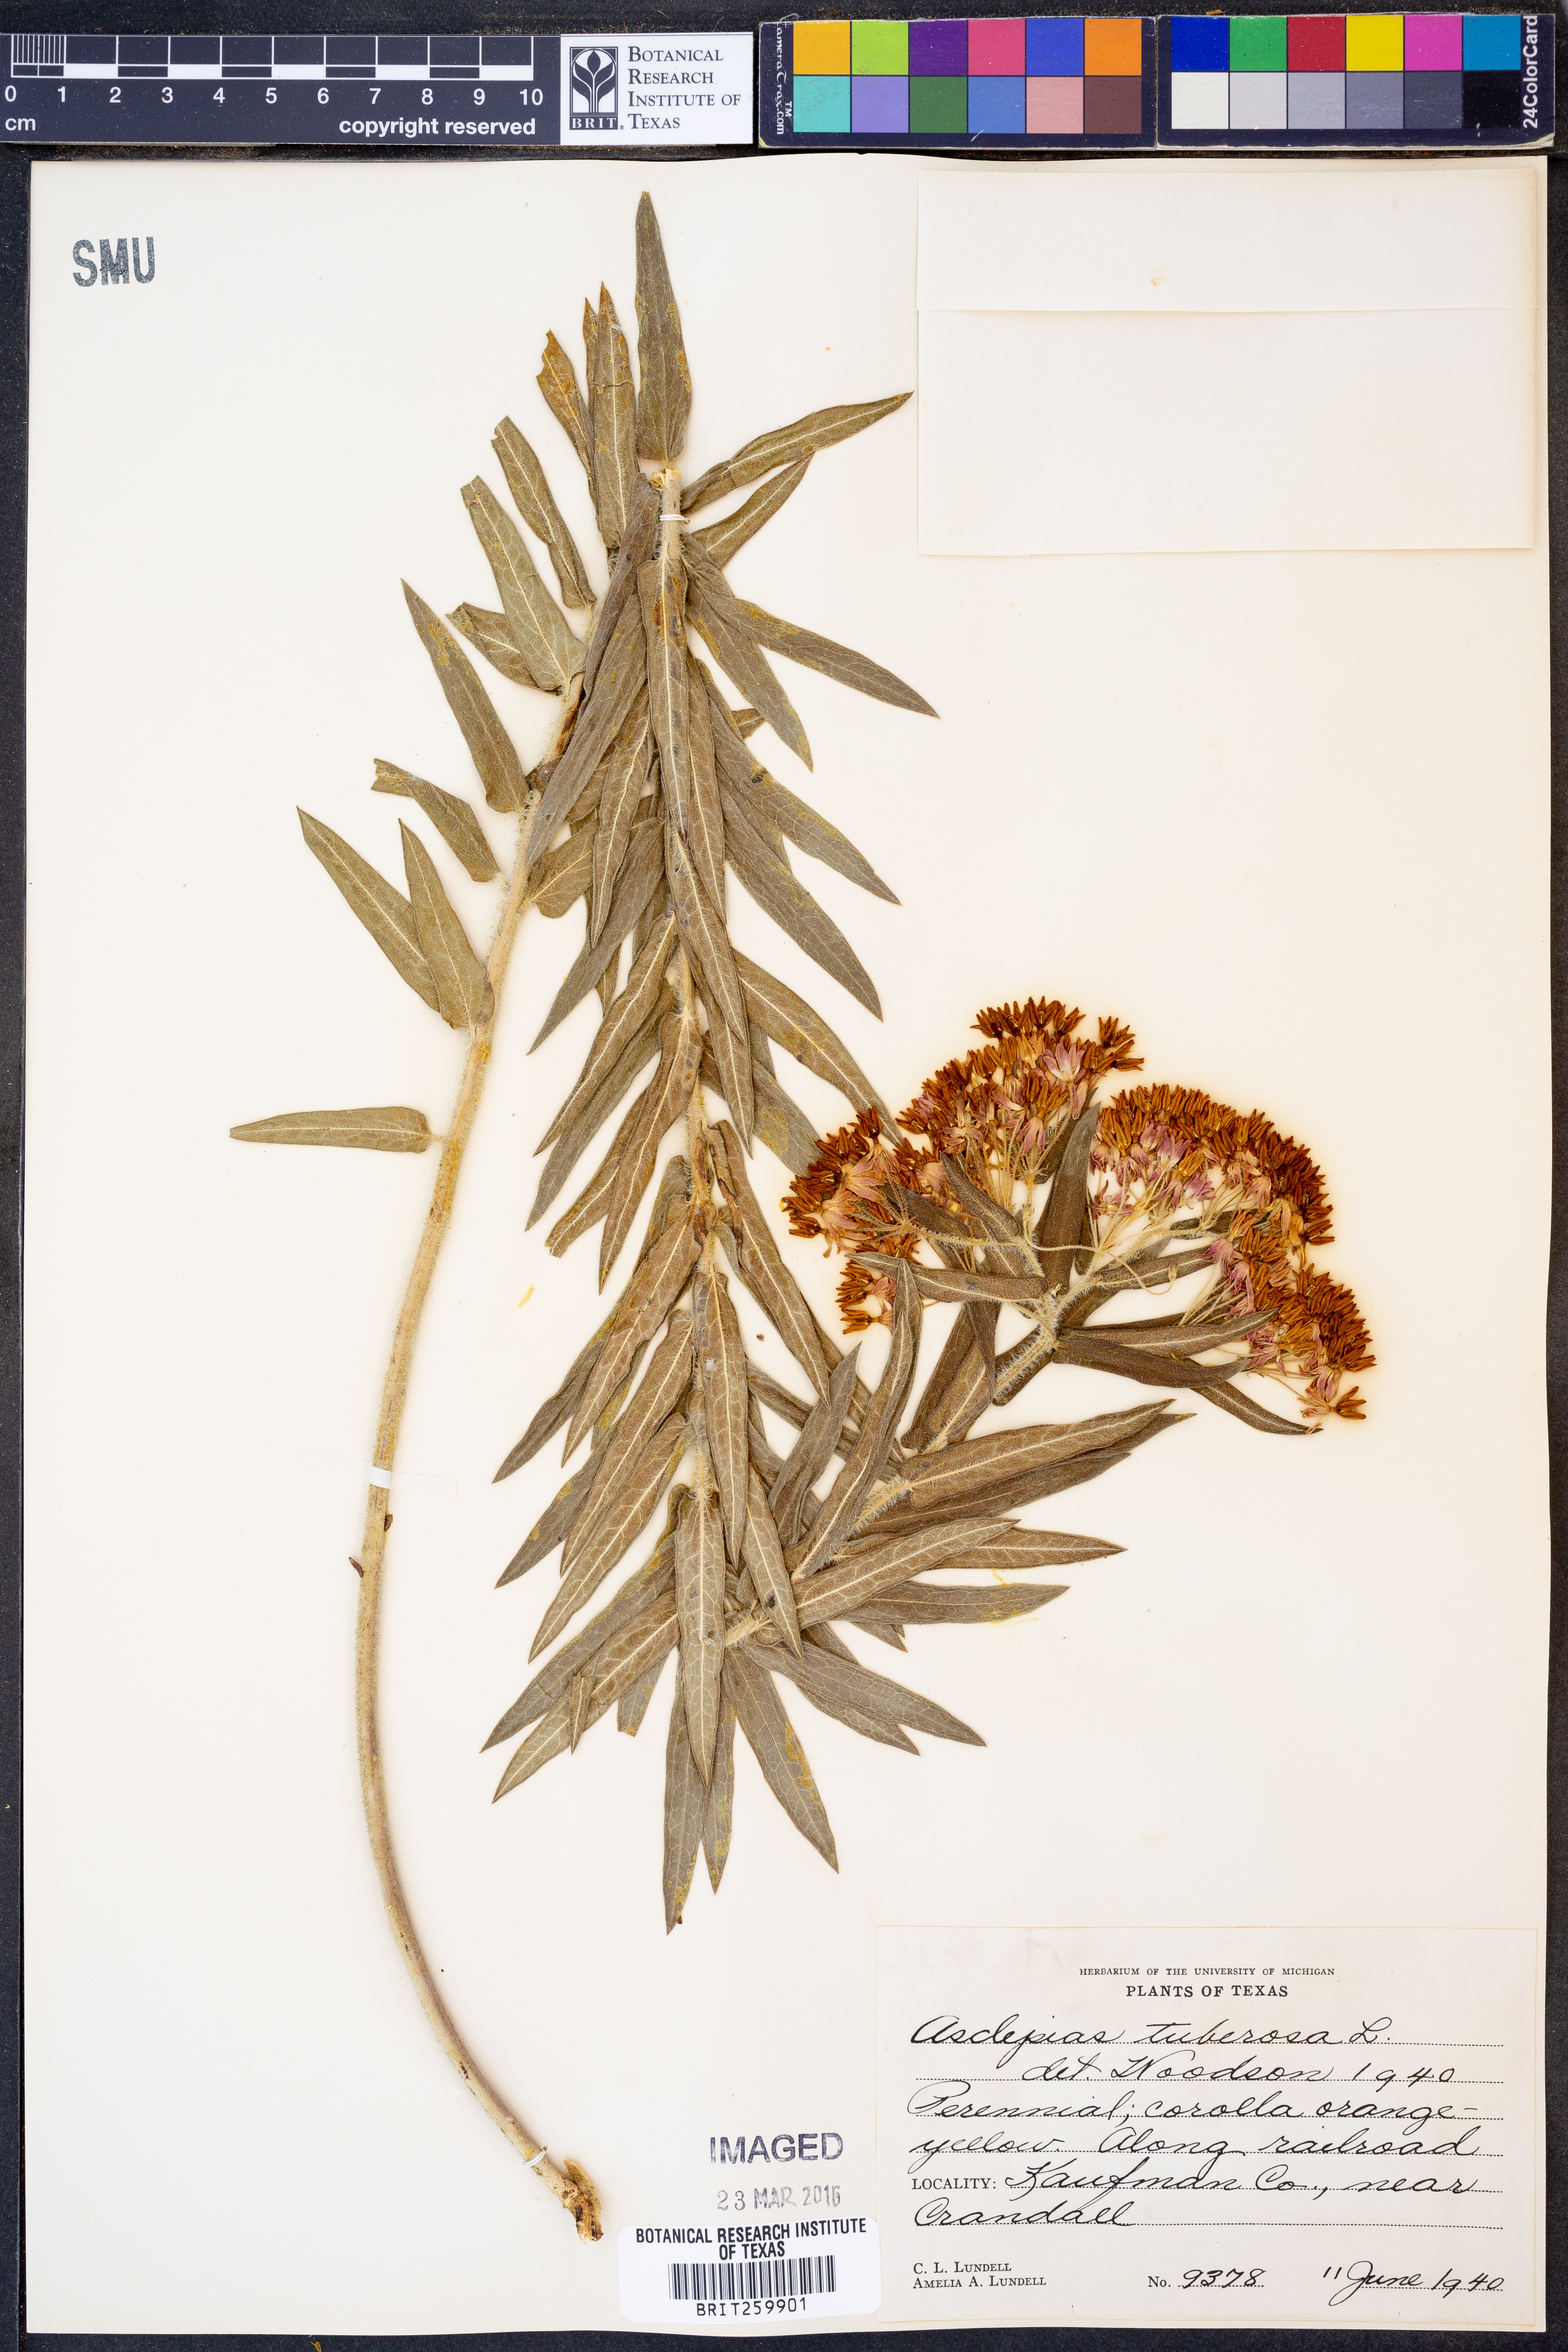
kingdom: Plantae
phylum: Tracheophyta
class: Magnoliopsida
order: Gentianales
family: Apocynaceae
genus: Asclepias
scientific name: Asclepias tuberosa
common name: Butterfly milkweed
